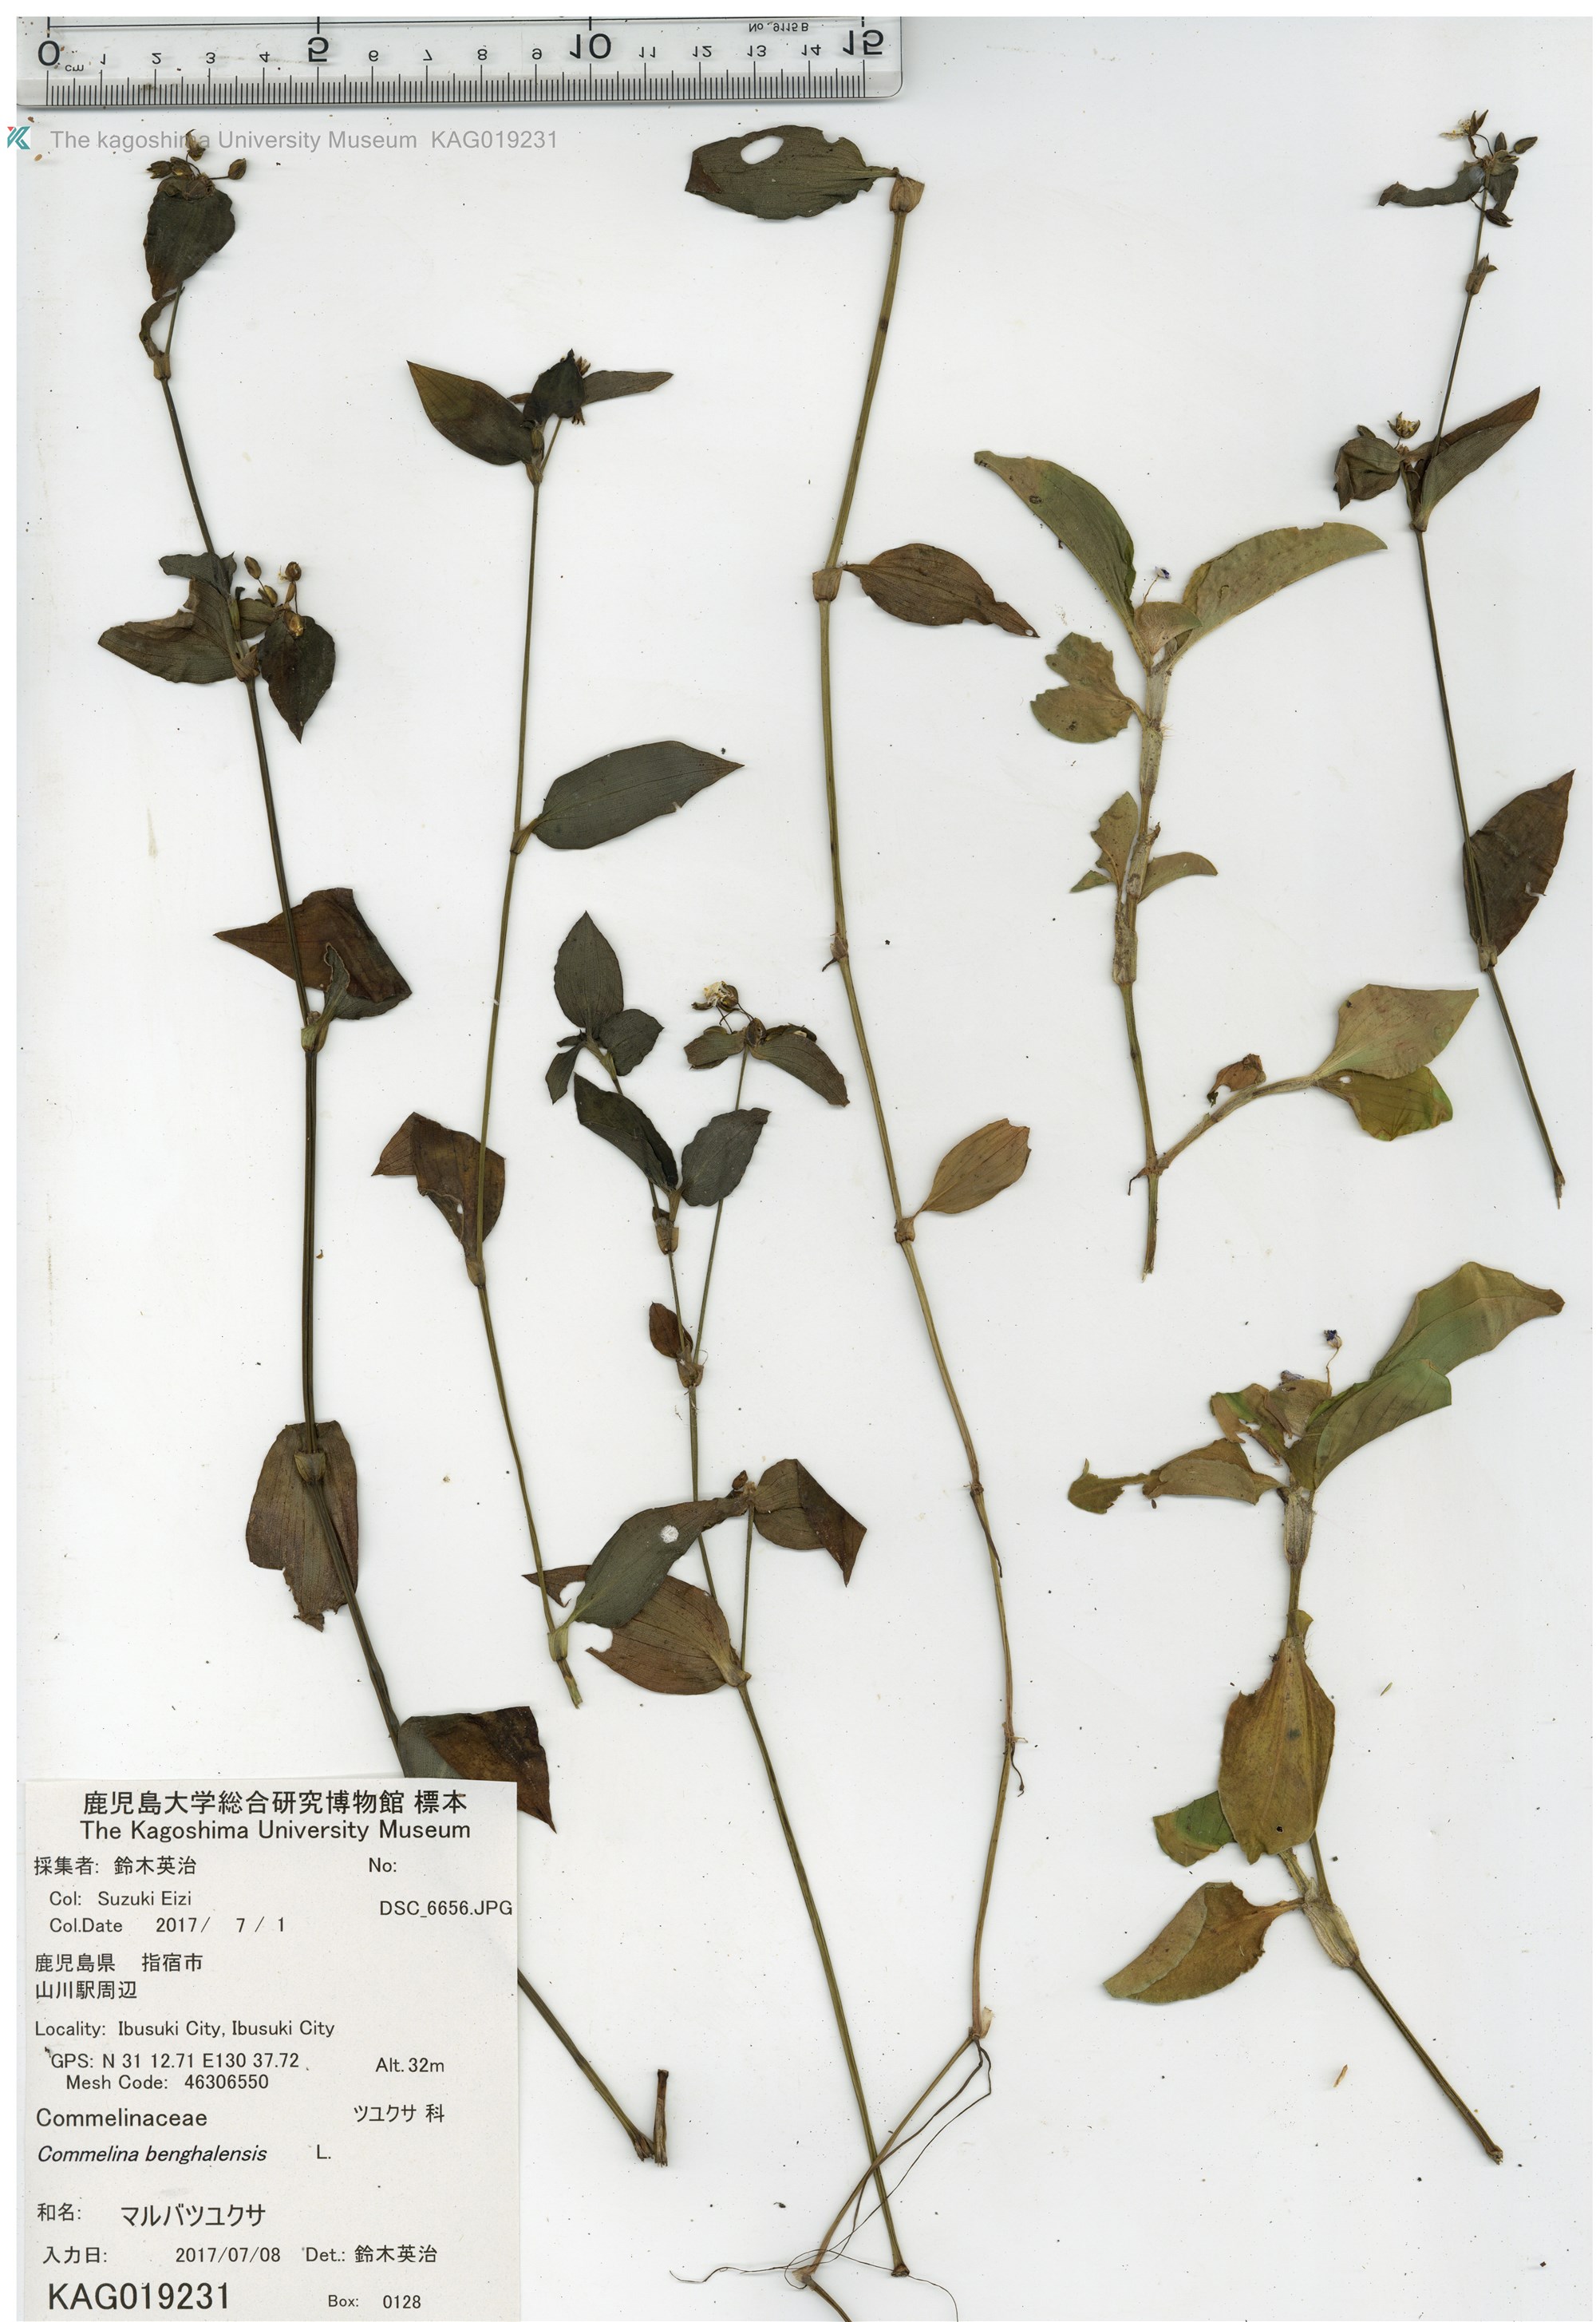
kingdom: Plantae
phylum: Tracheophyta
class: Liliopsida
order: Commelinales
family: Commelinaceae
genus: Commelina
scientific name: Commelina benghalensis
